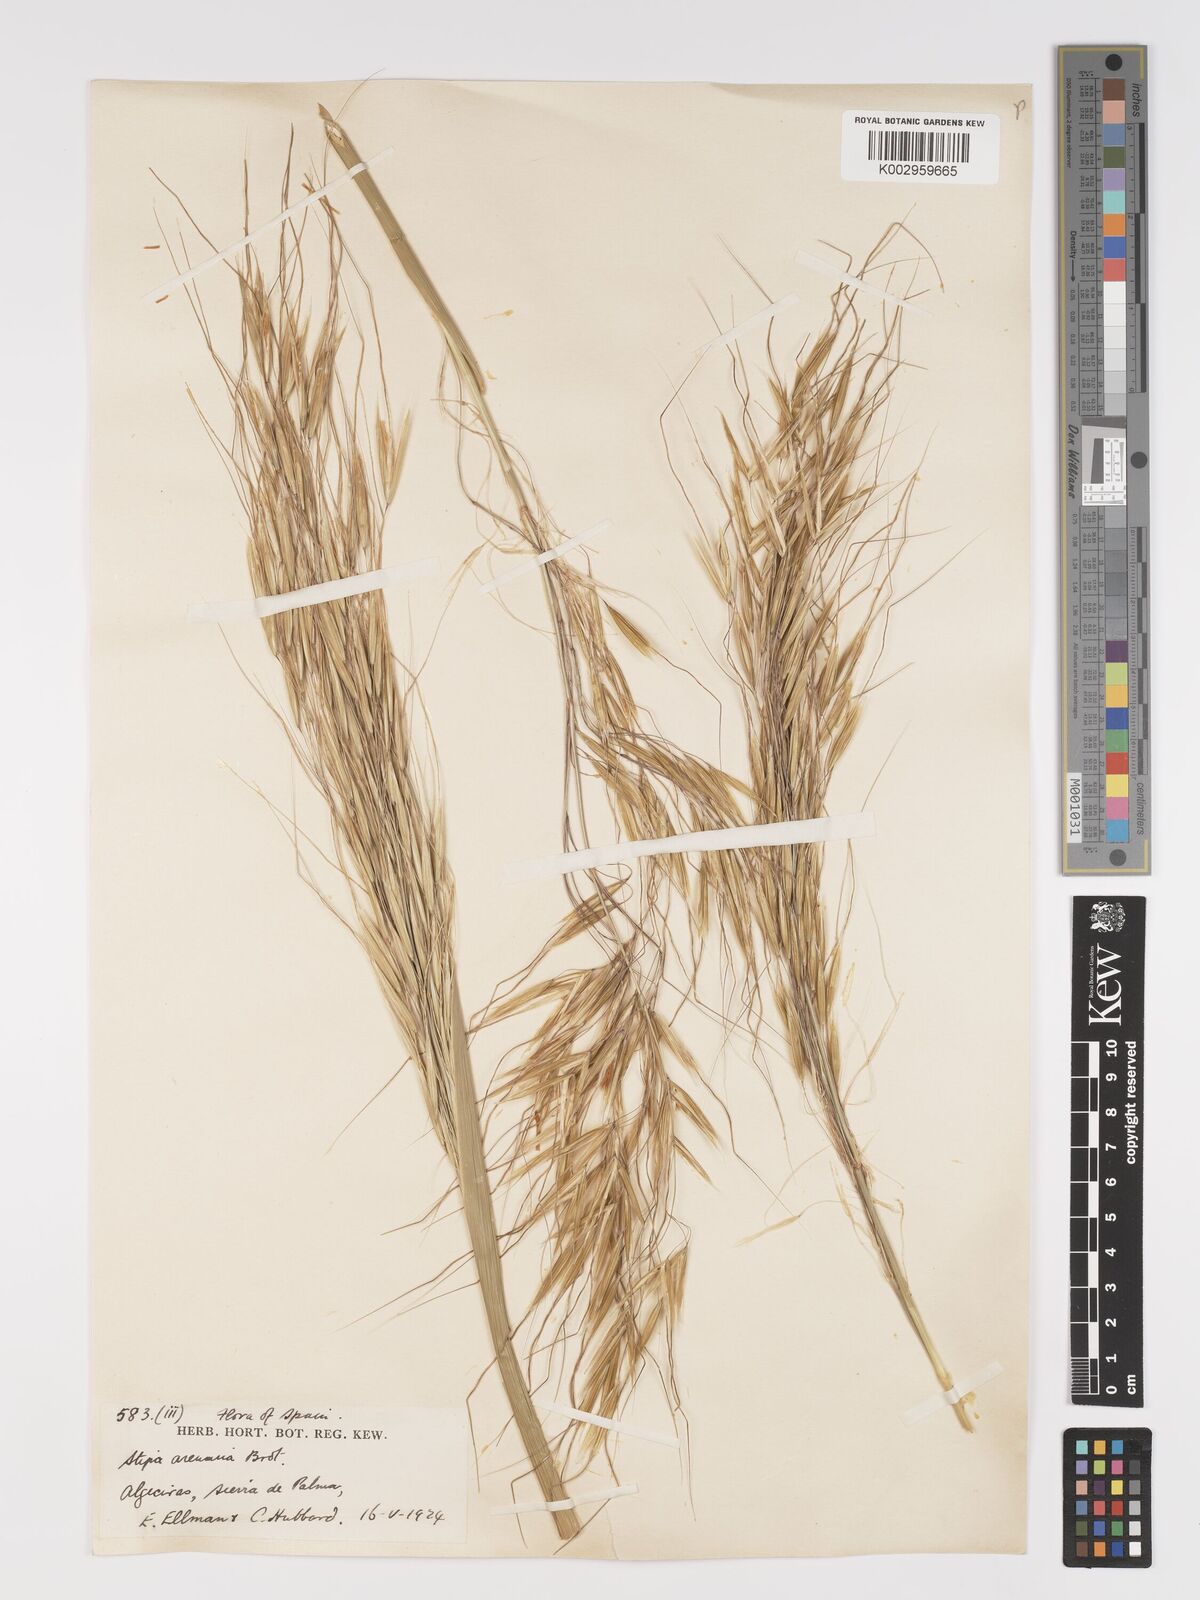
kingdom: Plantae
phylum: Tracheophyta
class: Liliopsida
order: Poales
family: Poaceae
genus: Celtica
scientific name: Celtica gigantea
